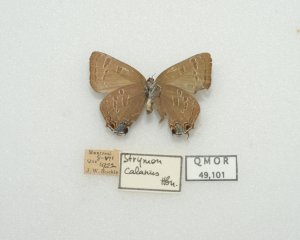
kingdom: Animalia
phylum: Arthropoda
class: Insecta
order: Lepidoptera
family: Lycaenidae
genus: Satyrium
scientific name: Satyrium calanus
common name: Banded Hairstreak
